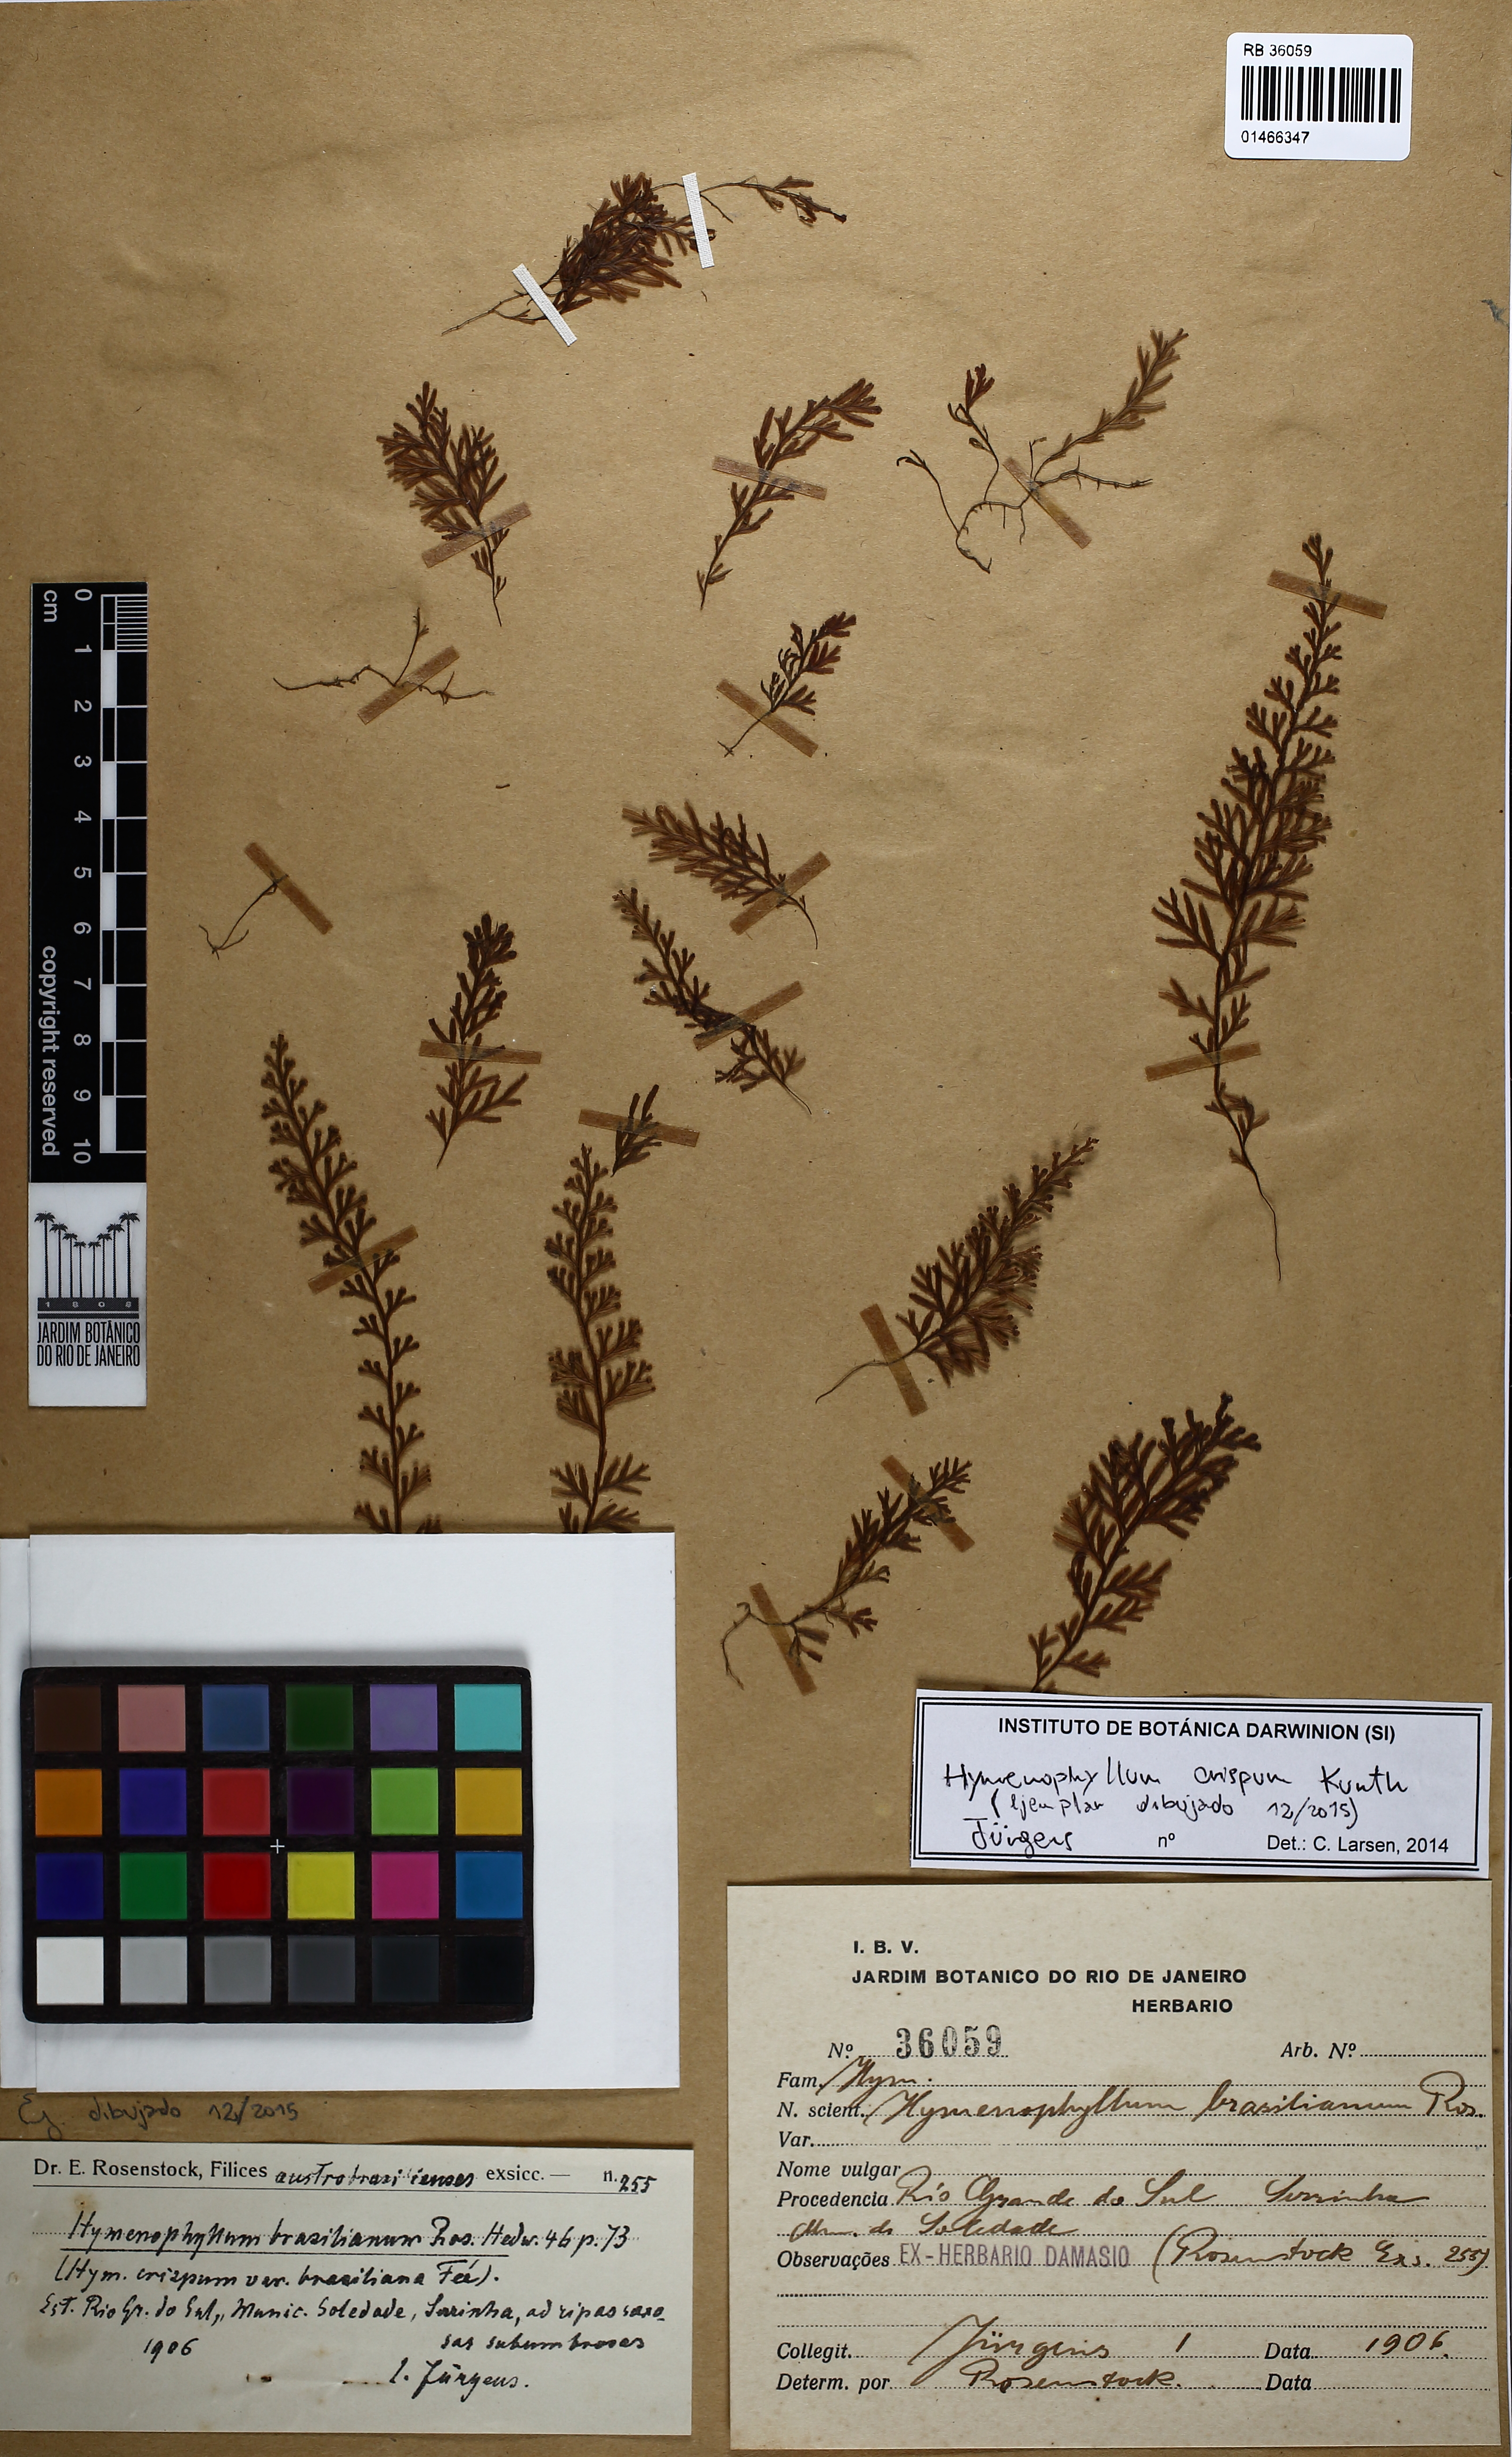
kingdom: Plantae
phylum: Tracheophyta
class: Polypodiopsida
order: Hymenophyllales
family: Hymenophyllaceae
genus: Hymenophyllum
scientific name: Hymenophyllum crispum
